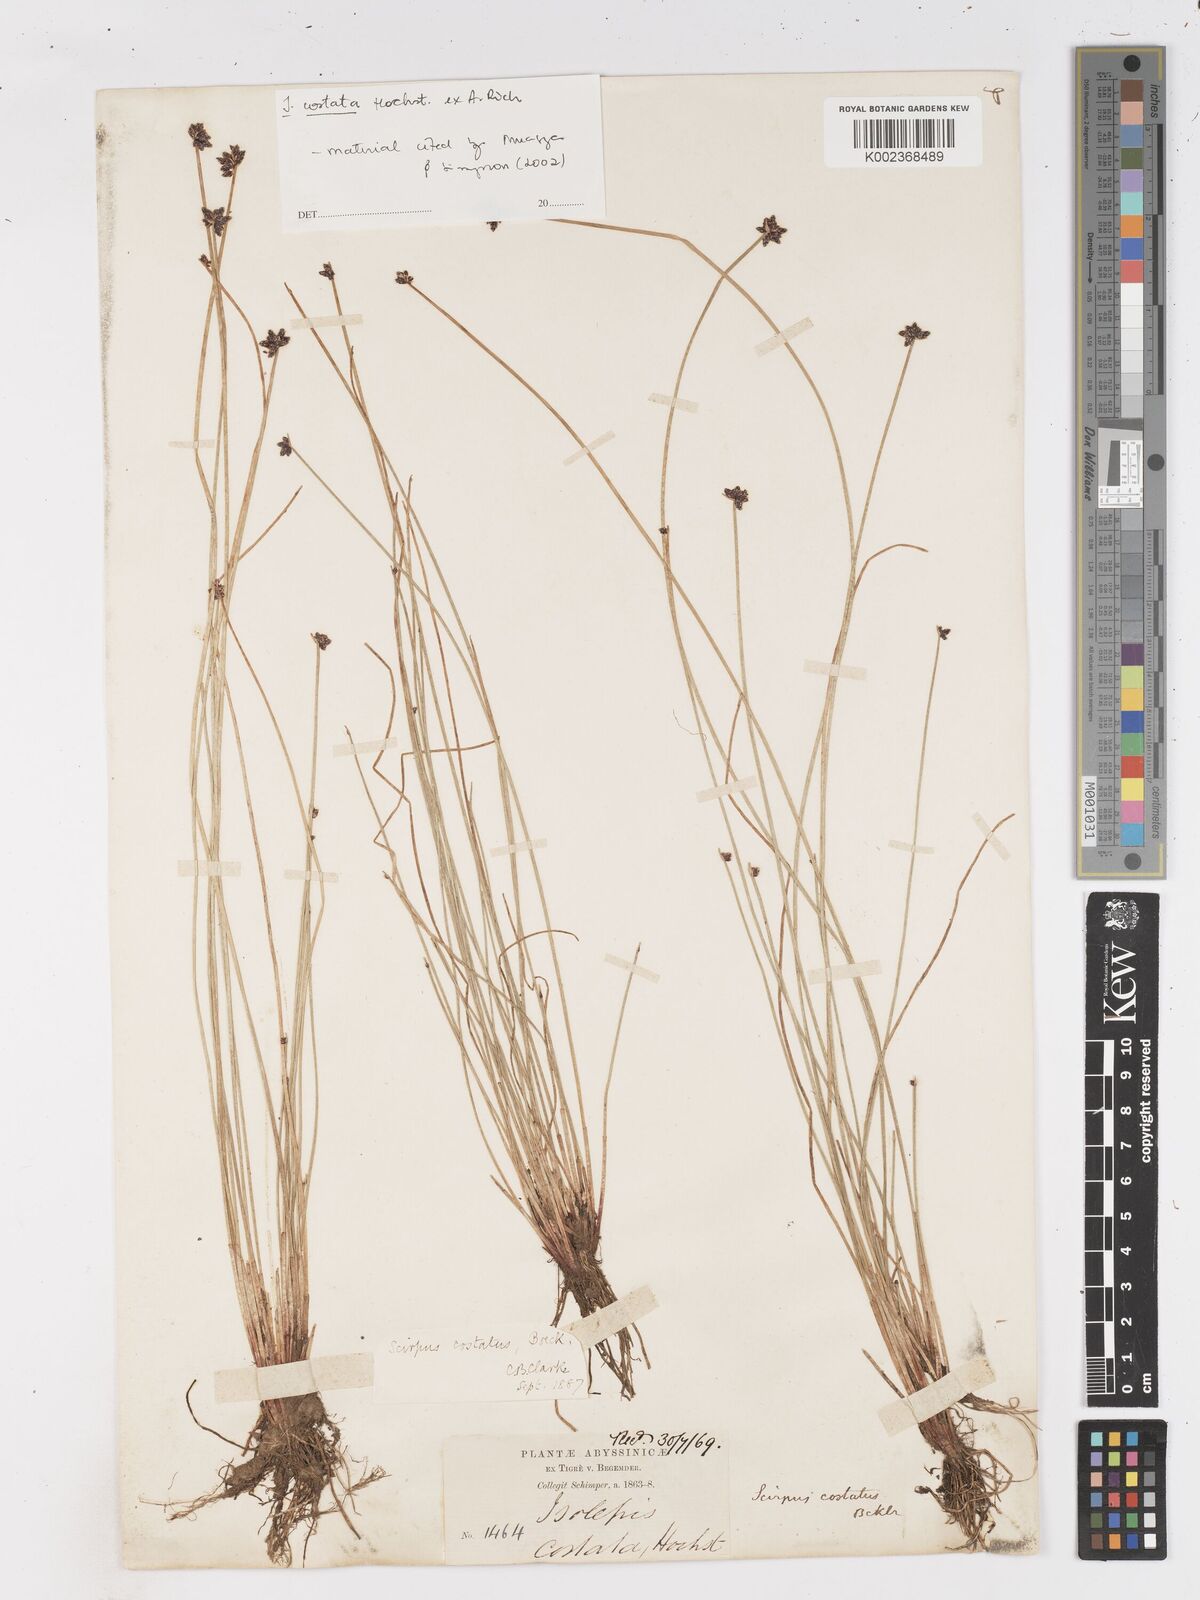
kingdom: Plantae
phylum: Tracheophyta
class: Liliopsida
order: Poales
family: Cyperaceae
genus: Isolepis
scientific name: Isolepis costata
